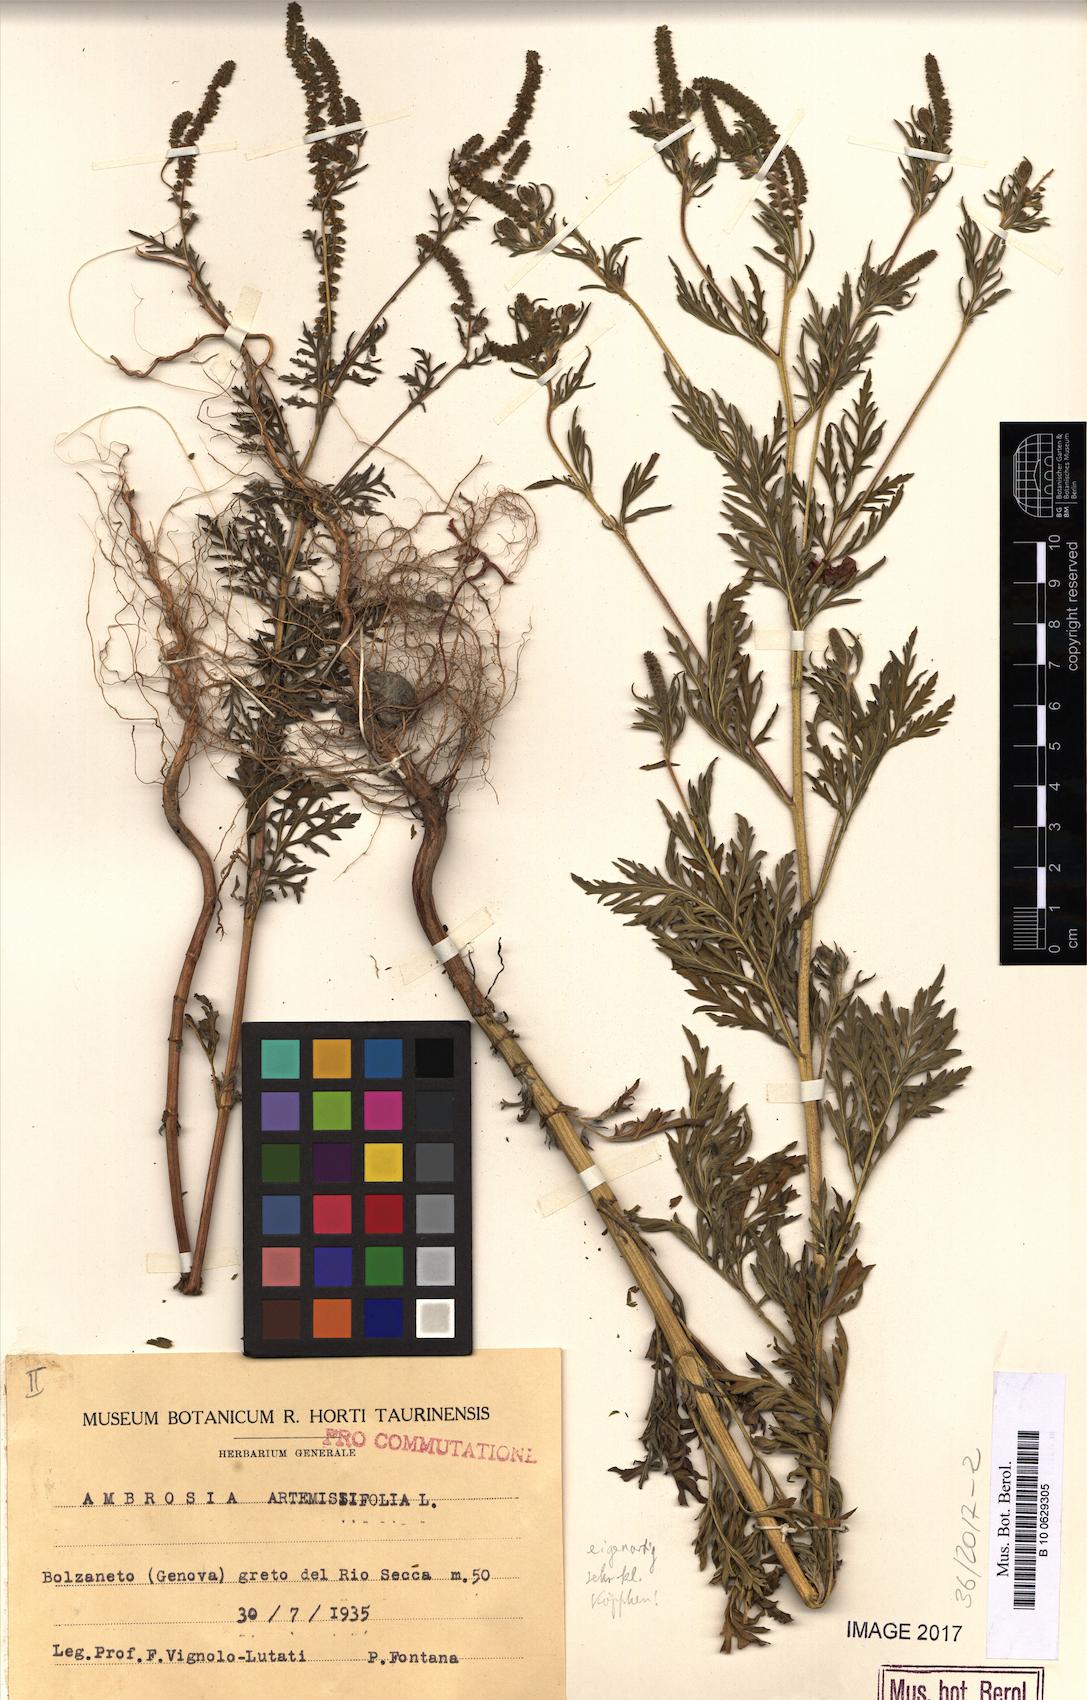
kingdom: Plantae
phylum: Tracheophyta
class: Magnoliopsida
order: Asterales
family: Asteraceae
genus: Ambrosia
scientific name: Ambrosia artemisiifolia
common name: Annual ragweed
